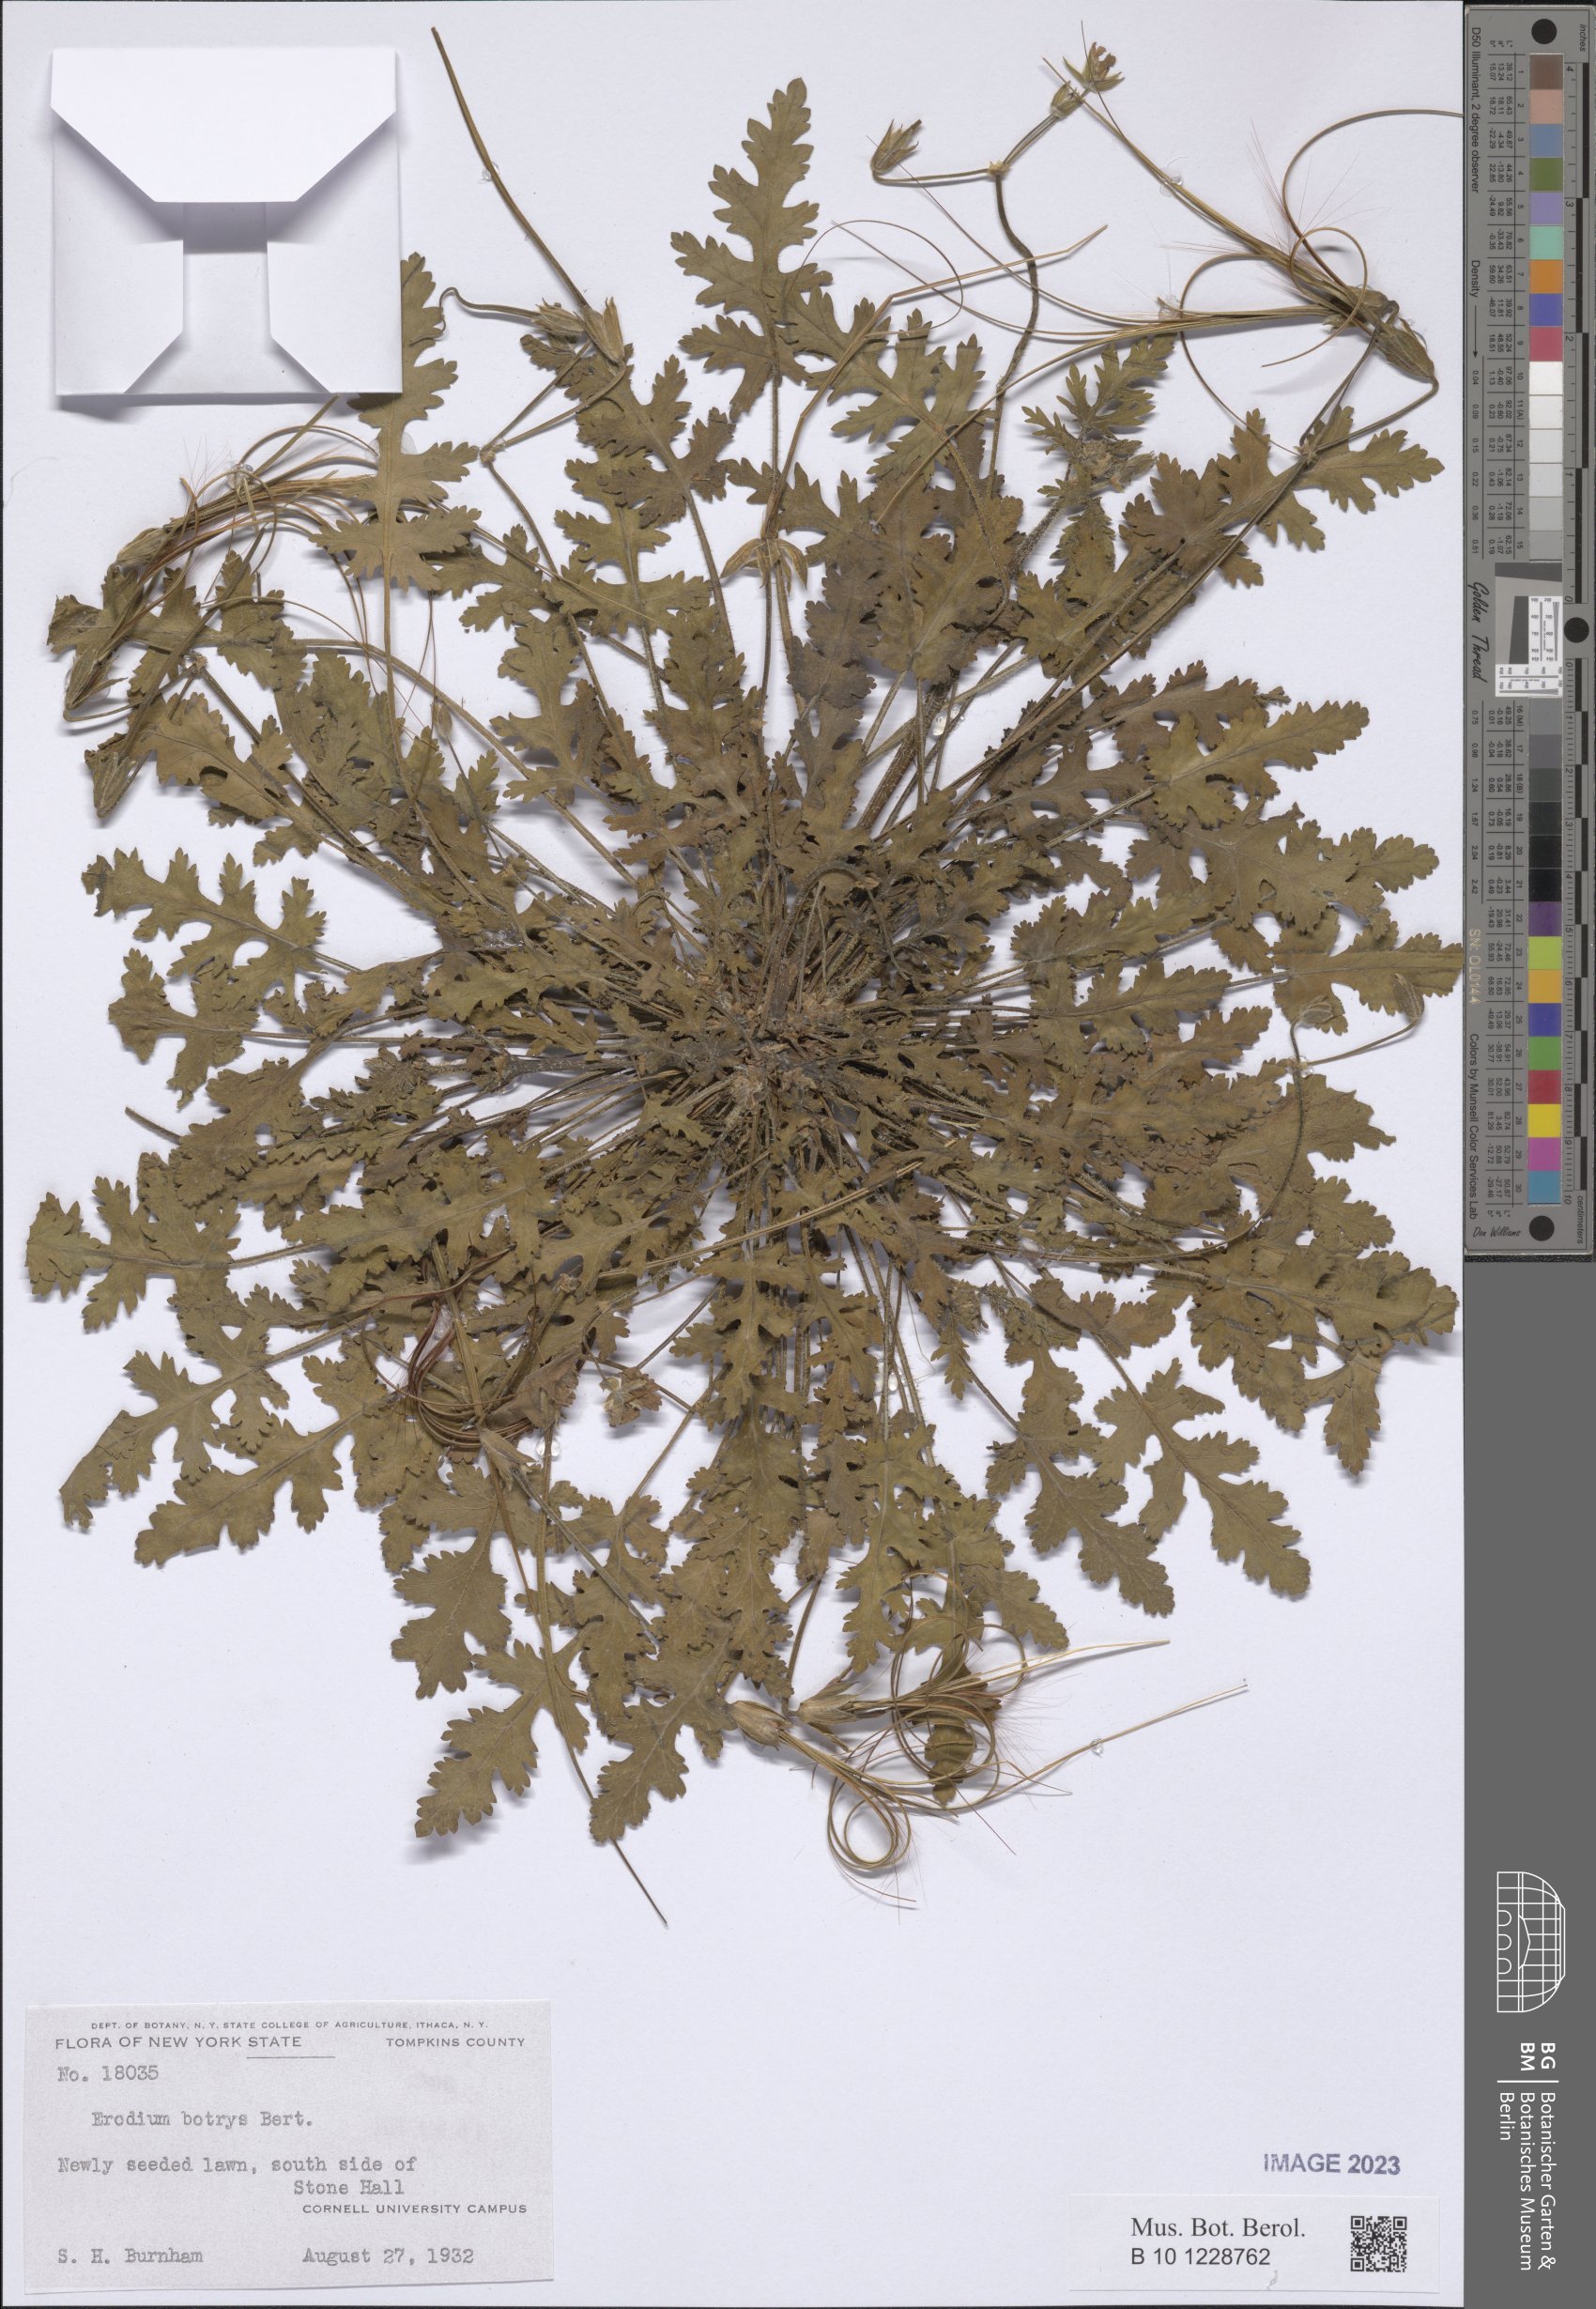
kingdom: Plantae
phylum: Tracheophyta
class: Magnoliopsida
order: Geraniales
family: Geraniaceae
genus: Erodium
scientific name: Erodium botrys
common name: Mediterranean stork's-bill
